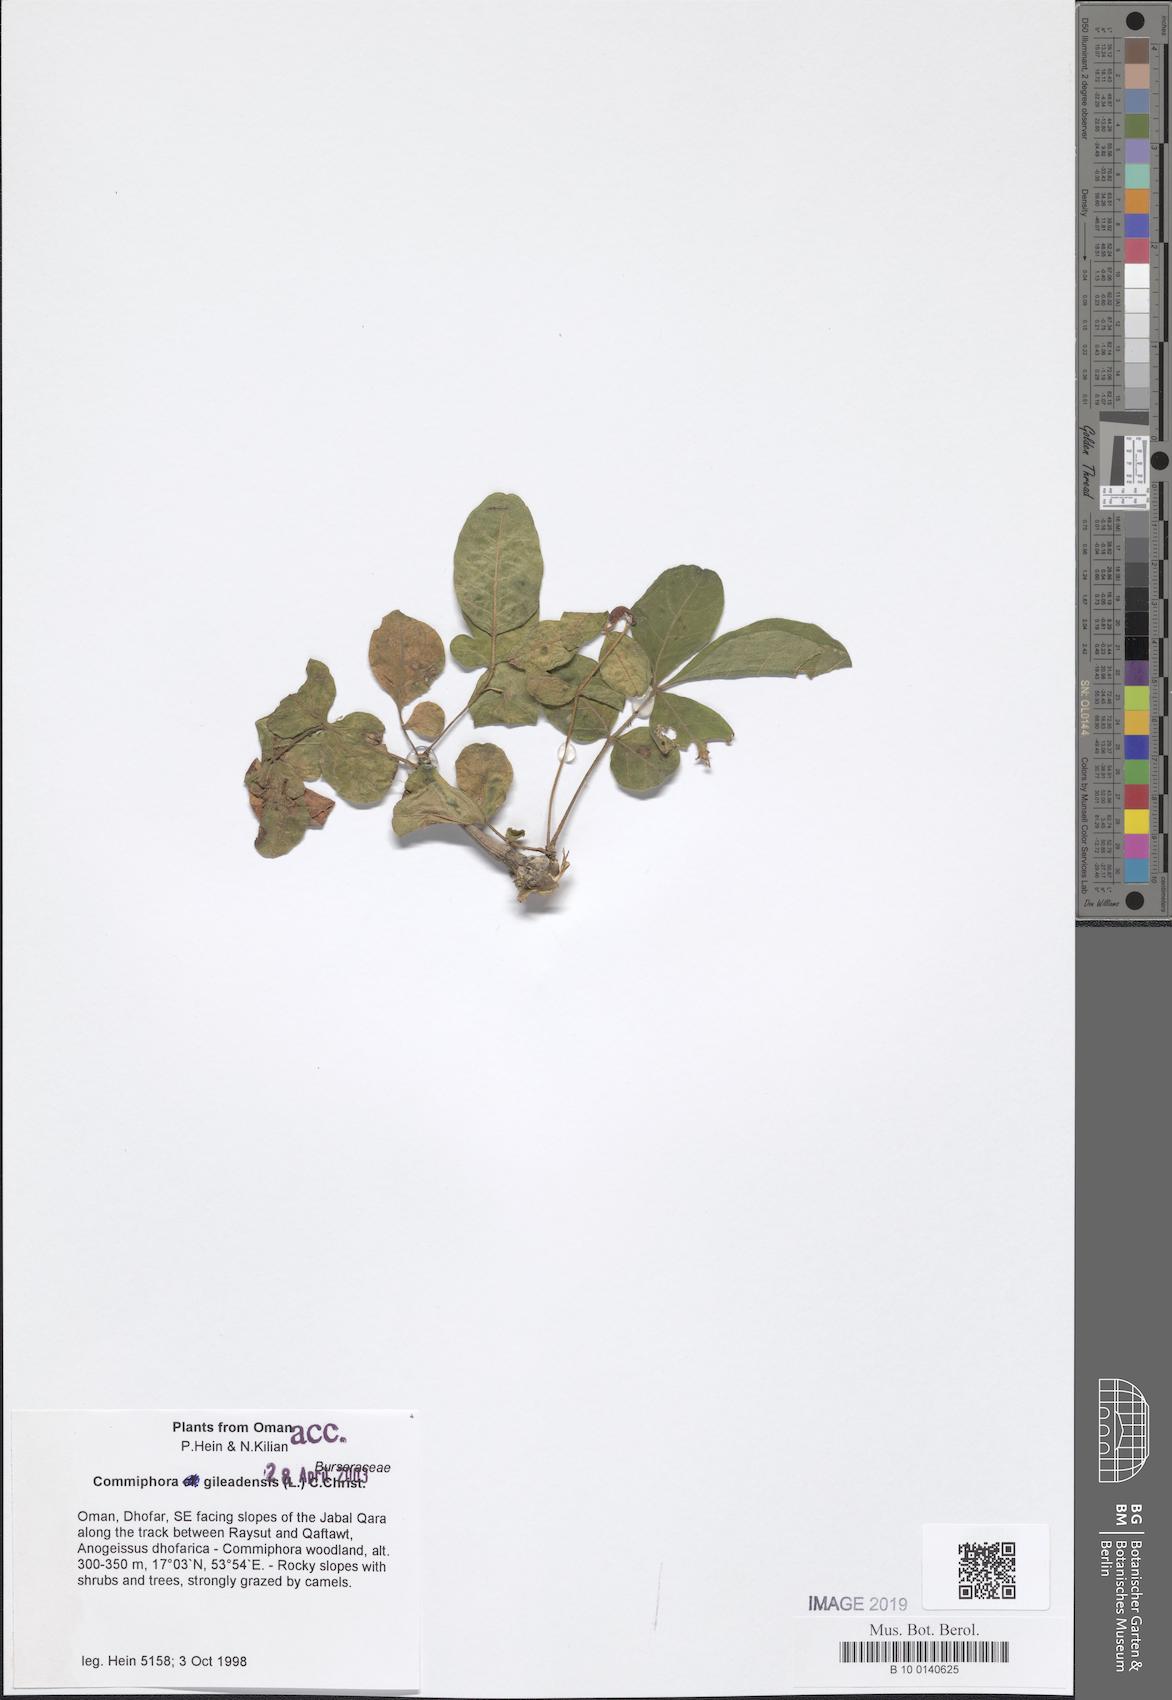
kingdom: Plantae
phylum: Tracheophyta
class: Magnoliopsida
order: Sapindales
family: Burseraceae
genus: Commiphora
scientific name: Commiphora gileadensis
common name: Balm-of-gilead
